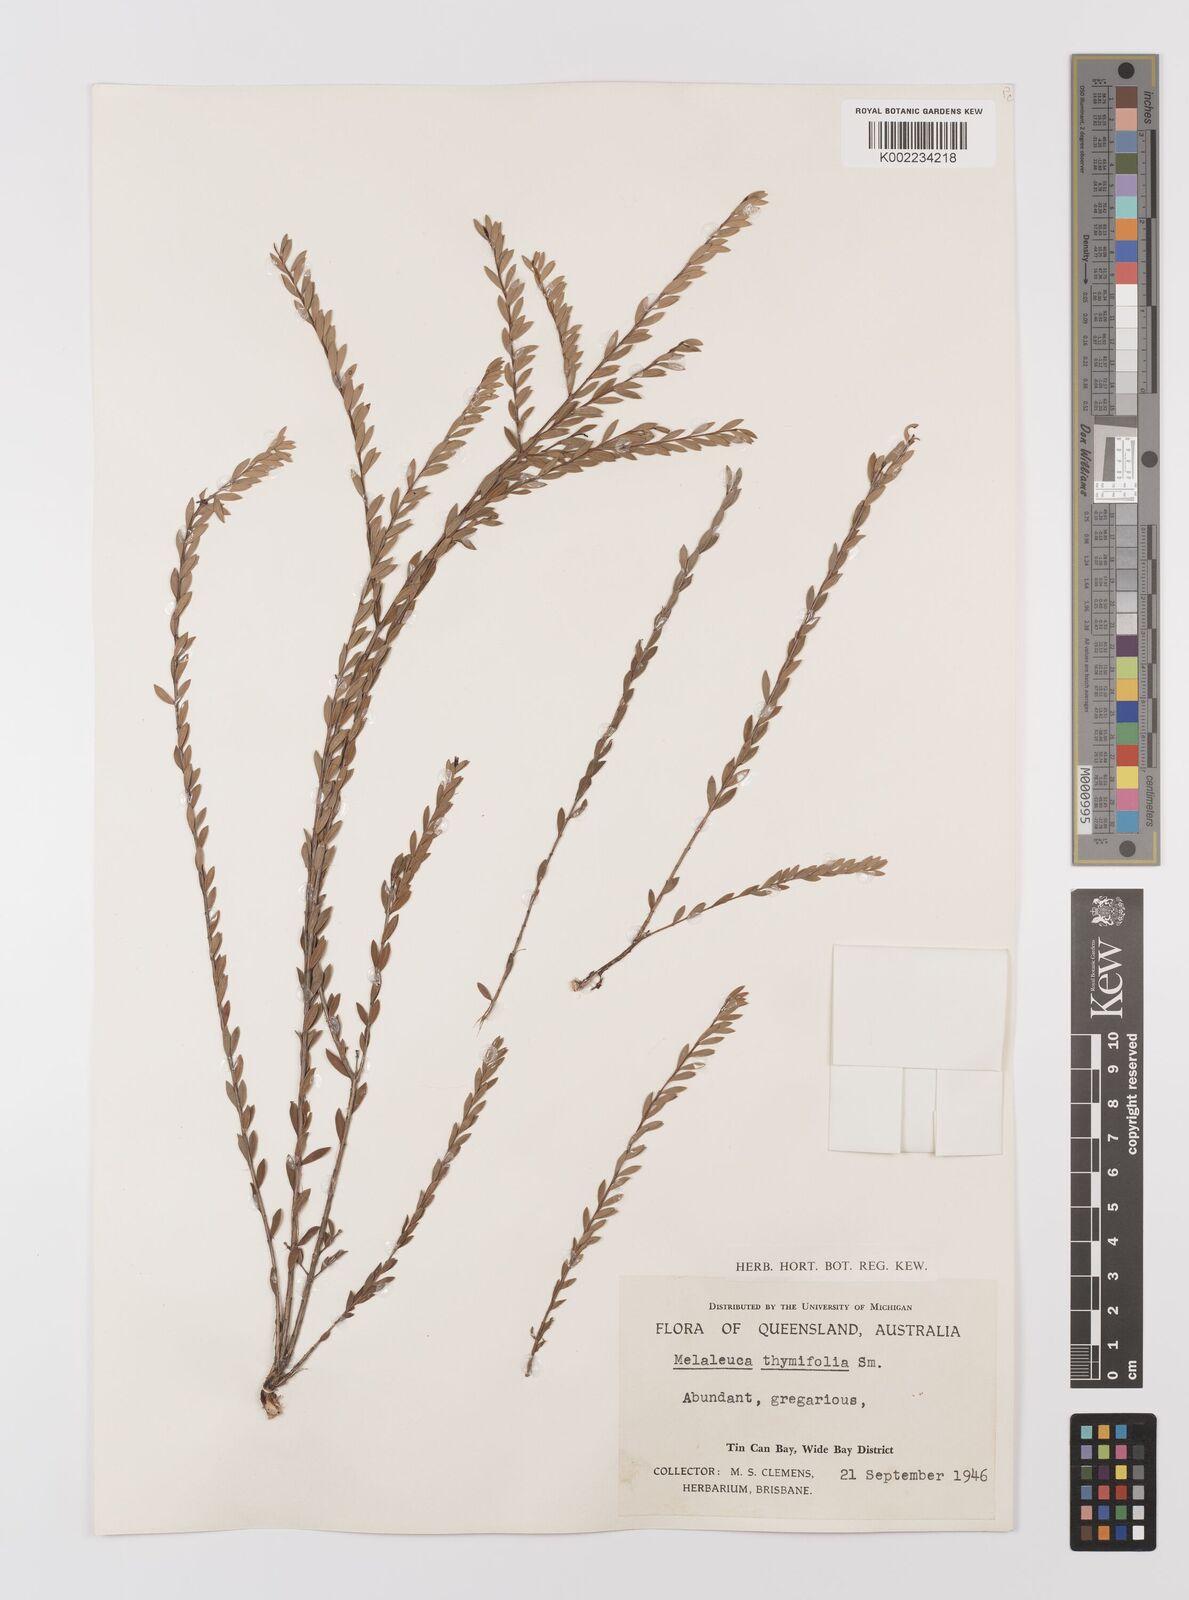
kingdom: Plantae
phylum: Tracheophyta
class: Magnoliopsida
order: Myrtales
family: Myrtaceae
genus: Melaleuca
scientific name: Melaleuca thymifolia
